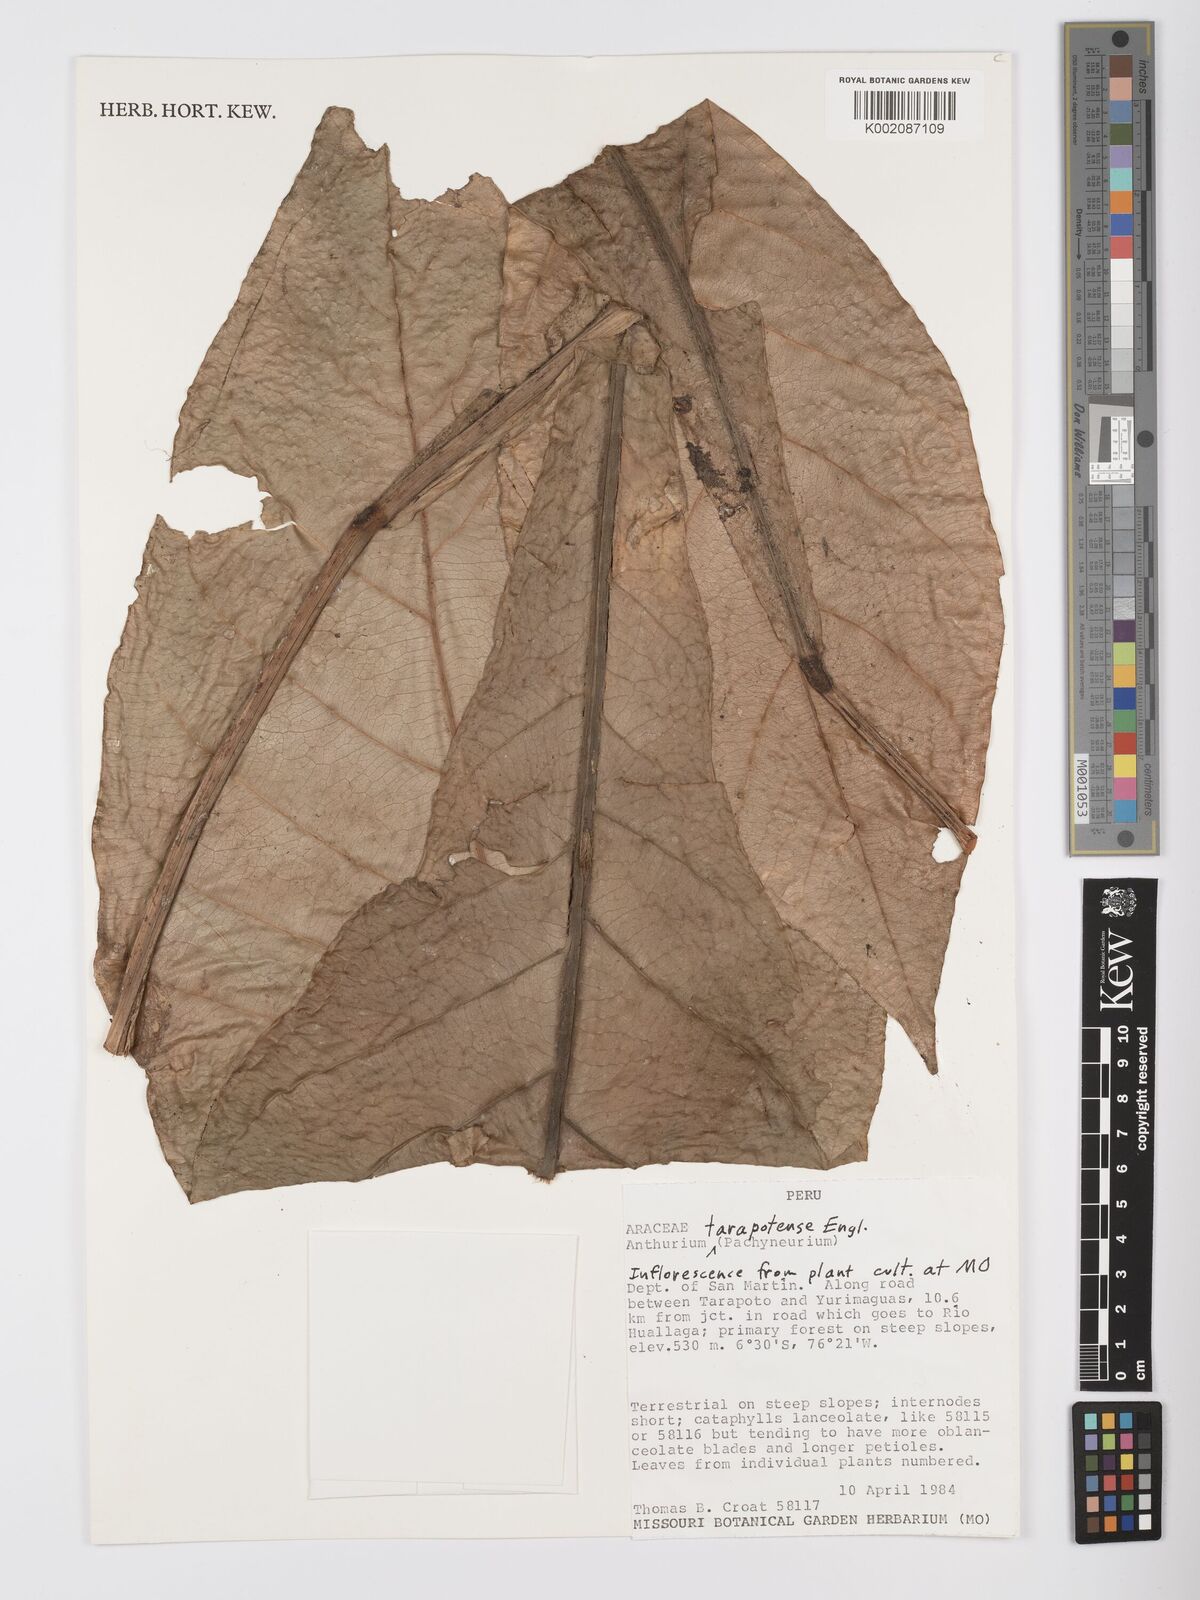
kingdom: Plantae
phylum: Tracheophyta
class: Liliopsida
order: Alismatales
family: Araceae
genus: Anthurium
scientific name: Anthurium tarapotense
